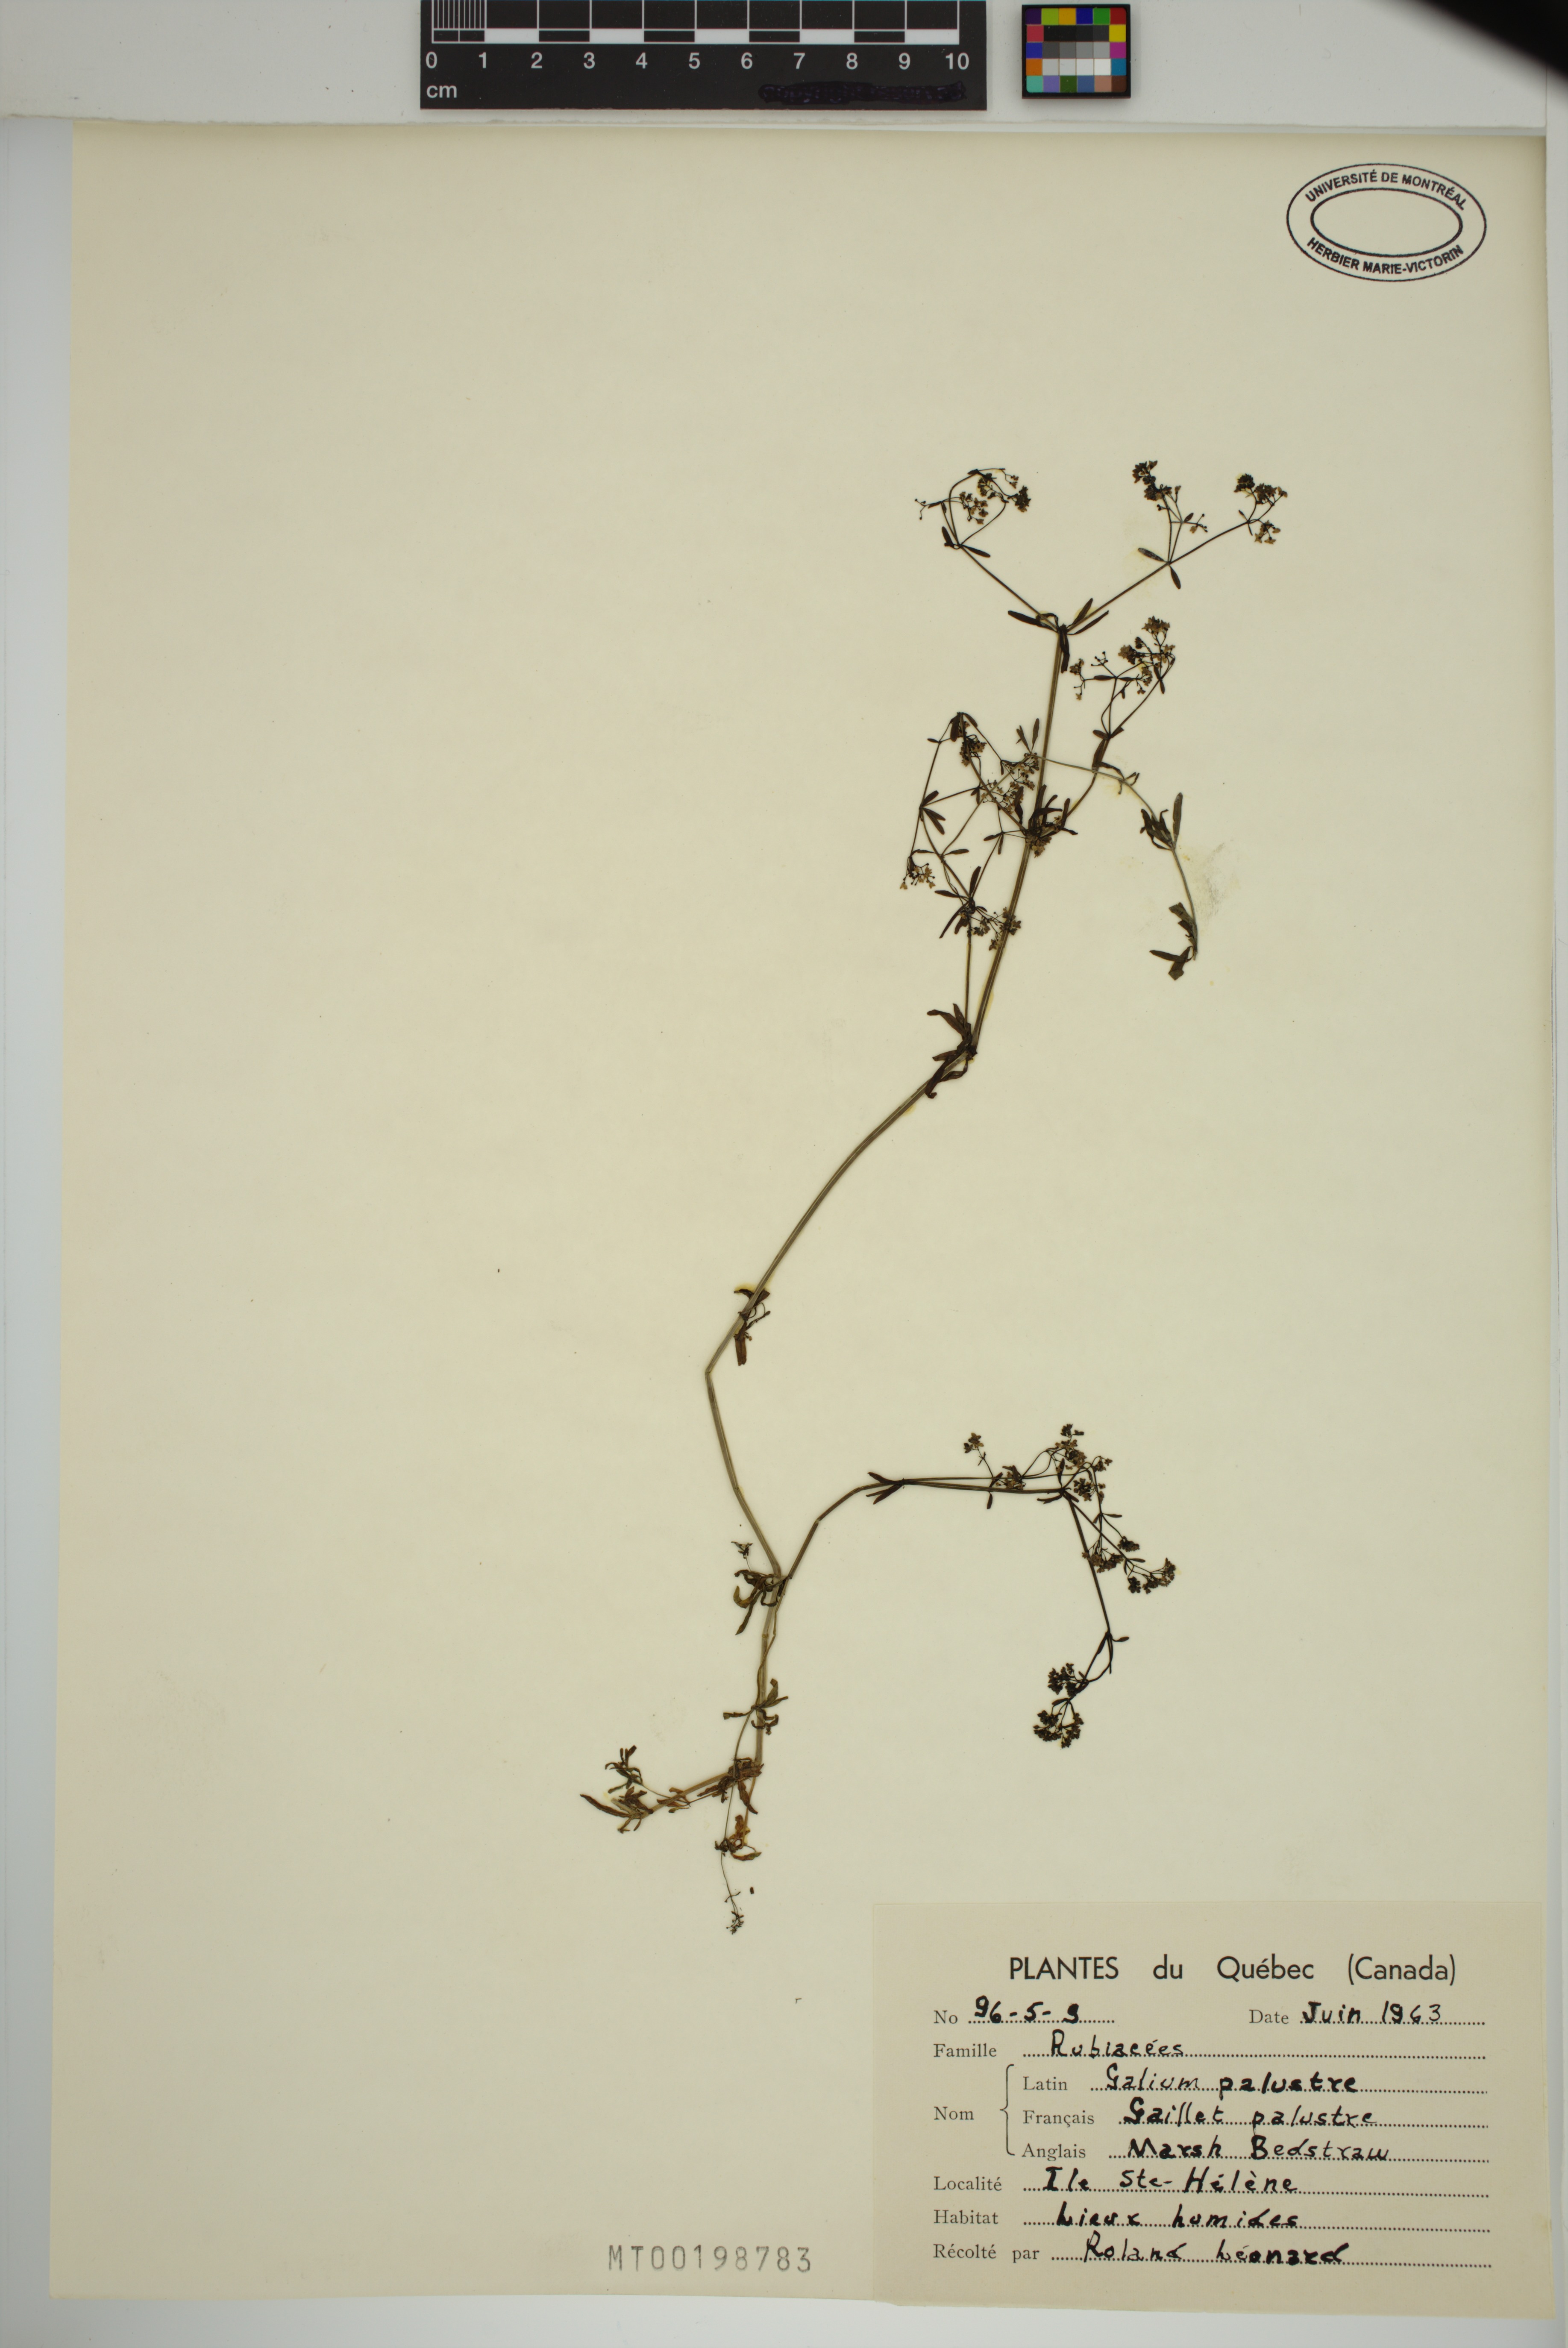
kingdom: Plantae
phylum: Tracheophyta
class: Magnoliopsida
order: Gentianales
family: Rubiaceae
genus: Galium
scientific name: Galium palustre
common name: Common marsh-bedstraw
